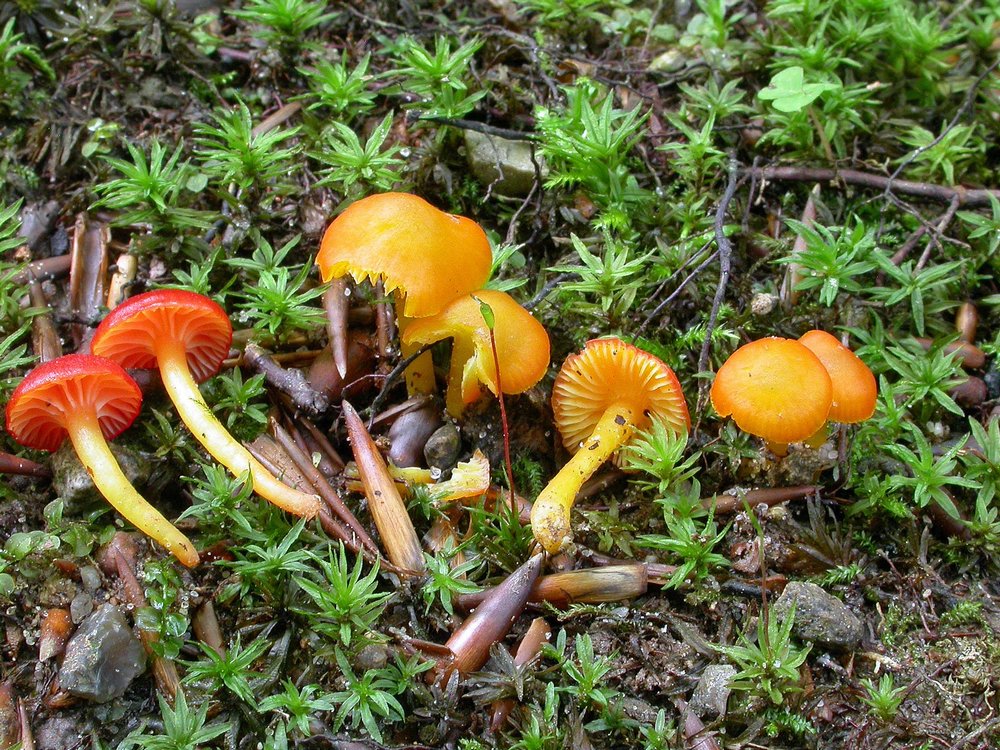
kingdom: Fungi
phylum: Basidiomycota
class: Agaricomycetes
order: Agaricales
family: Hygrophoraceae
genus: Hygrocybe
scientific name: Hygrocybe insipida
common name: liden vokshat
